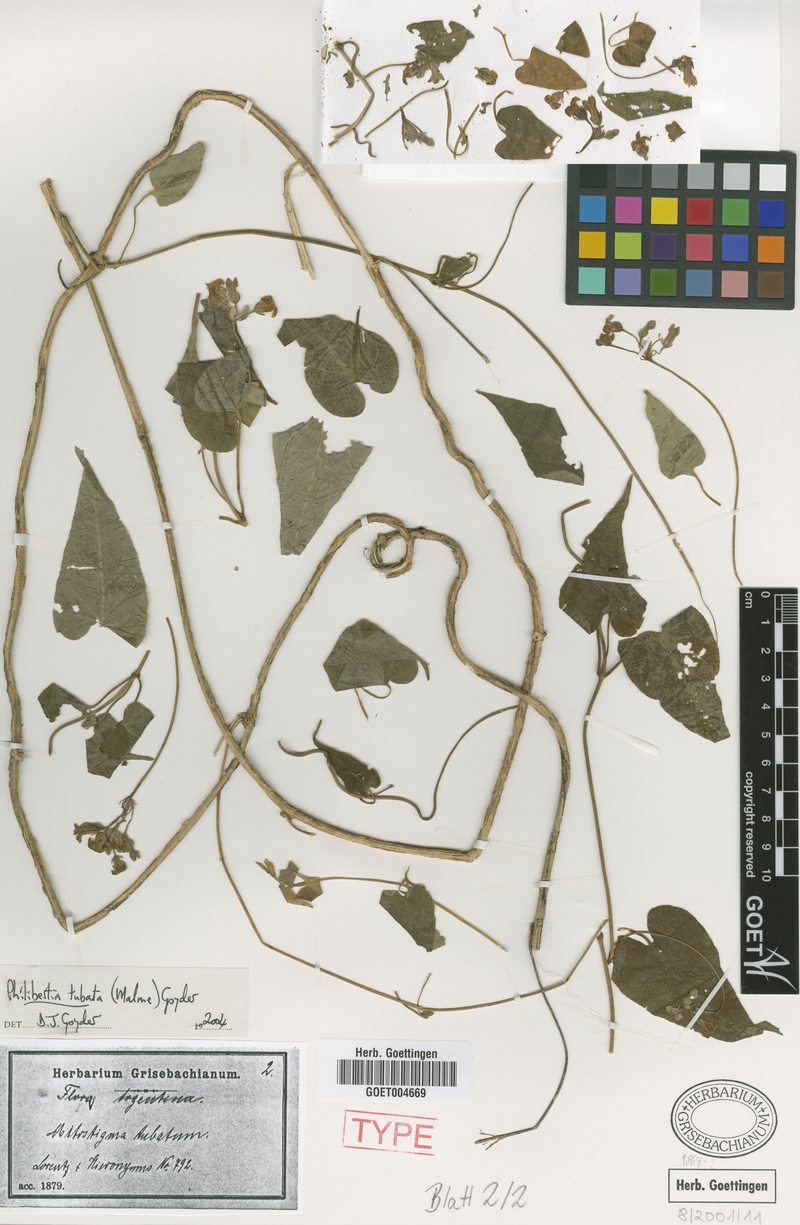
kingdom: Plantae
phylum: Tracheophyta
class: Magnoliopsida
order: Gentianales
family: Apocynaceae
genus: Philibertia
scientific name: Philibertia tubata
